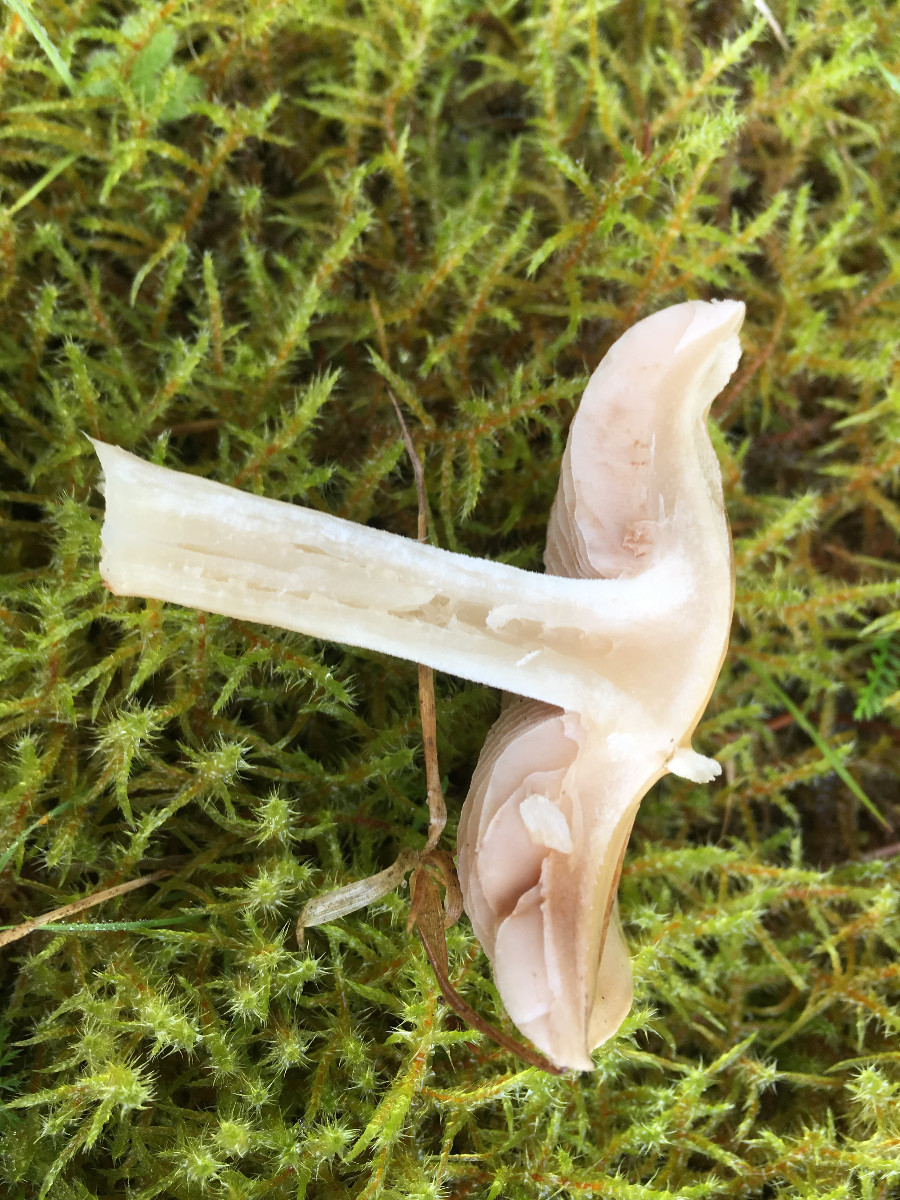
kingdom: Fungi
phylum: Basidiomycota
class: Agaricomycetes
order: Agaricales
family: Hymenogastraceae
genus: Hebeloma
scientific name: Hebeloma
